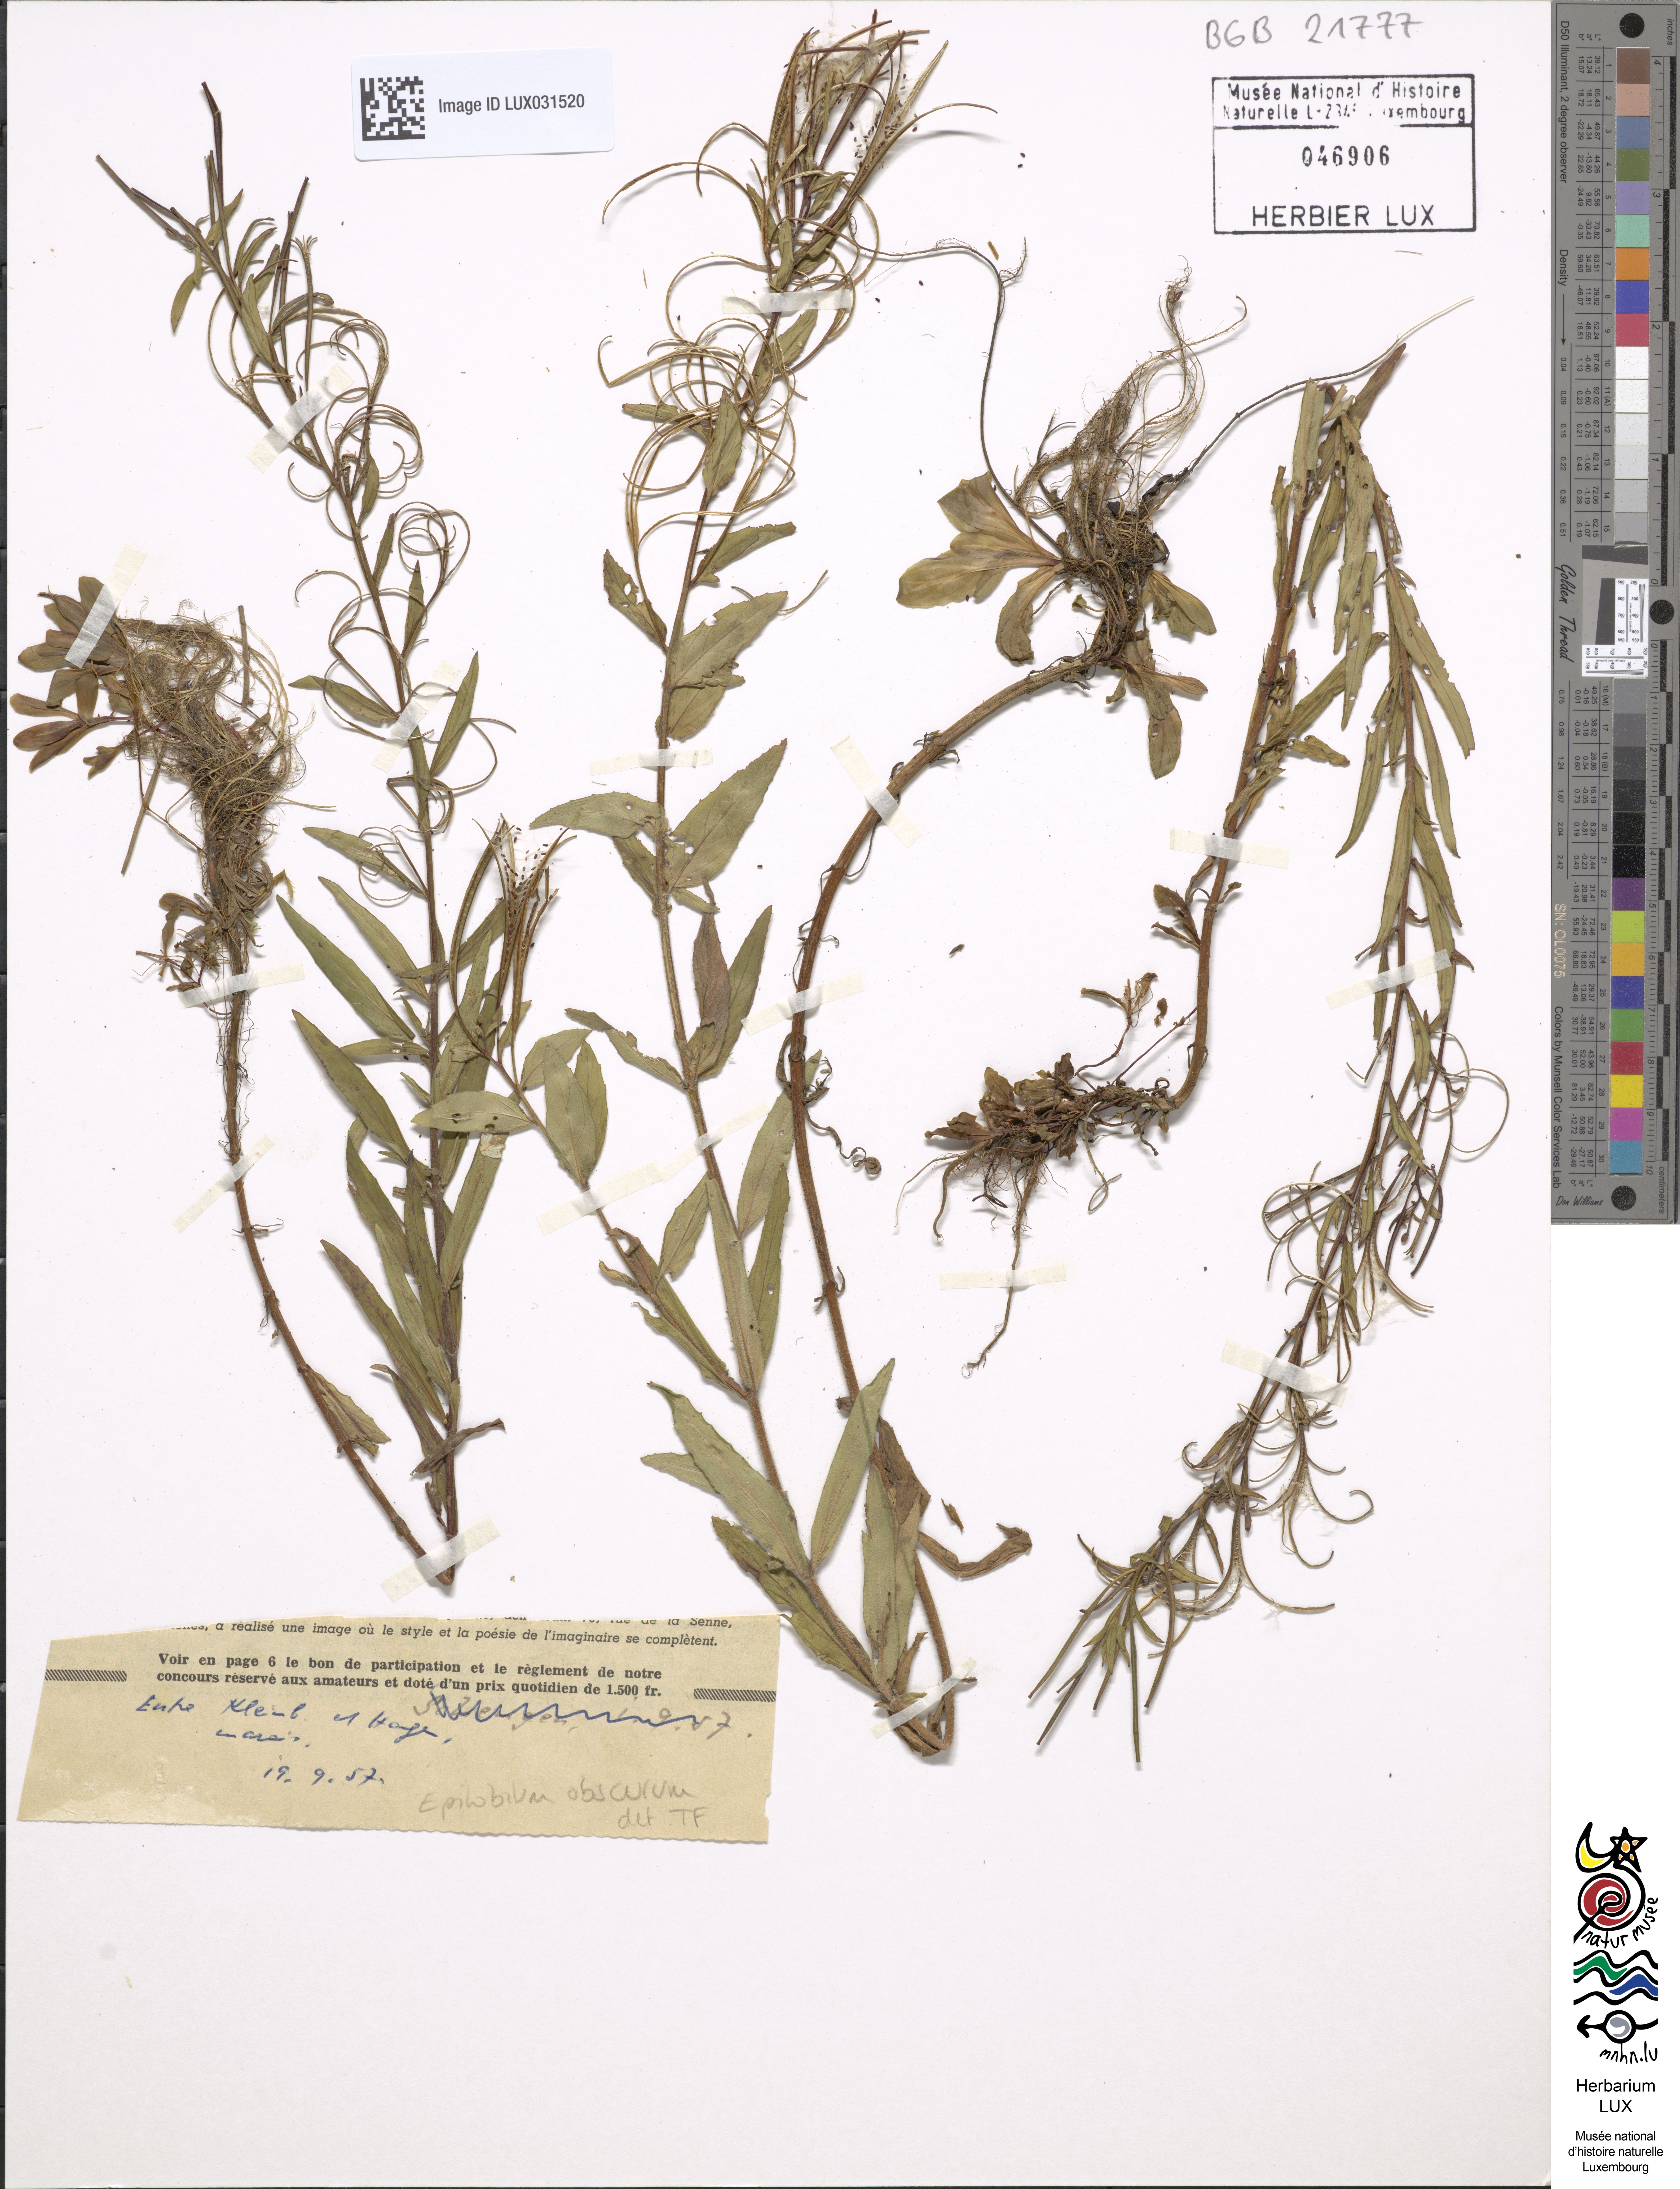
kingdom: Plantae
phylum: Tracheophyta
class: Magnoliopsida
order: Myrtales
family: Onagraceae
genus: Epilobium
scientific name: Epilobium obscurum
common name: Short-fruited willowherb
